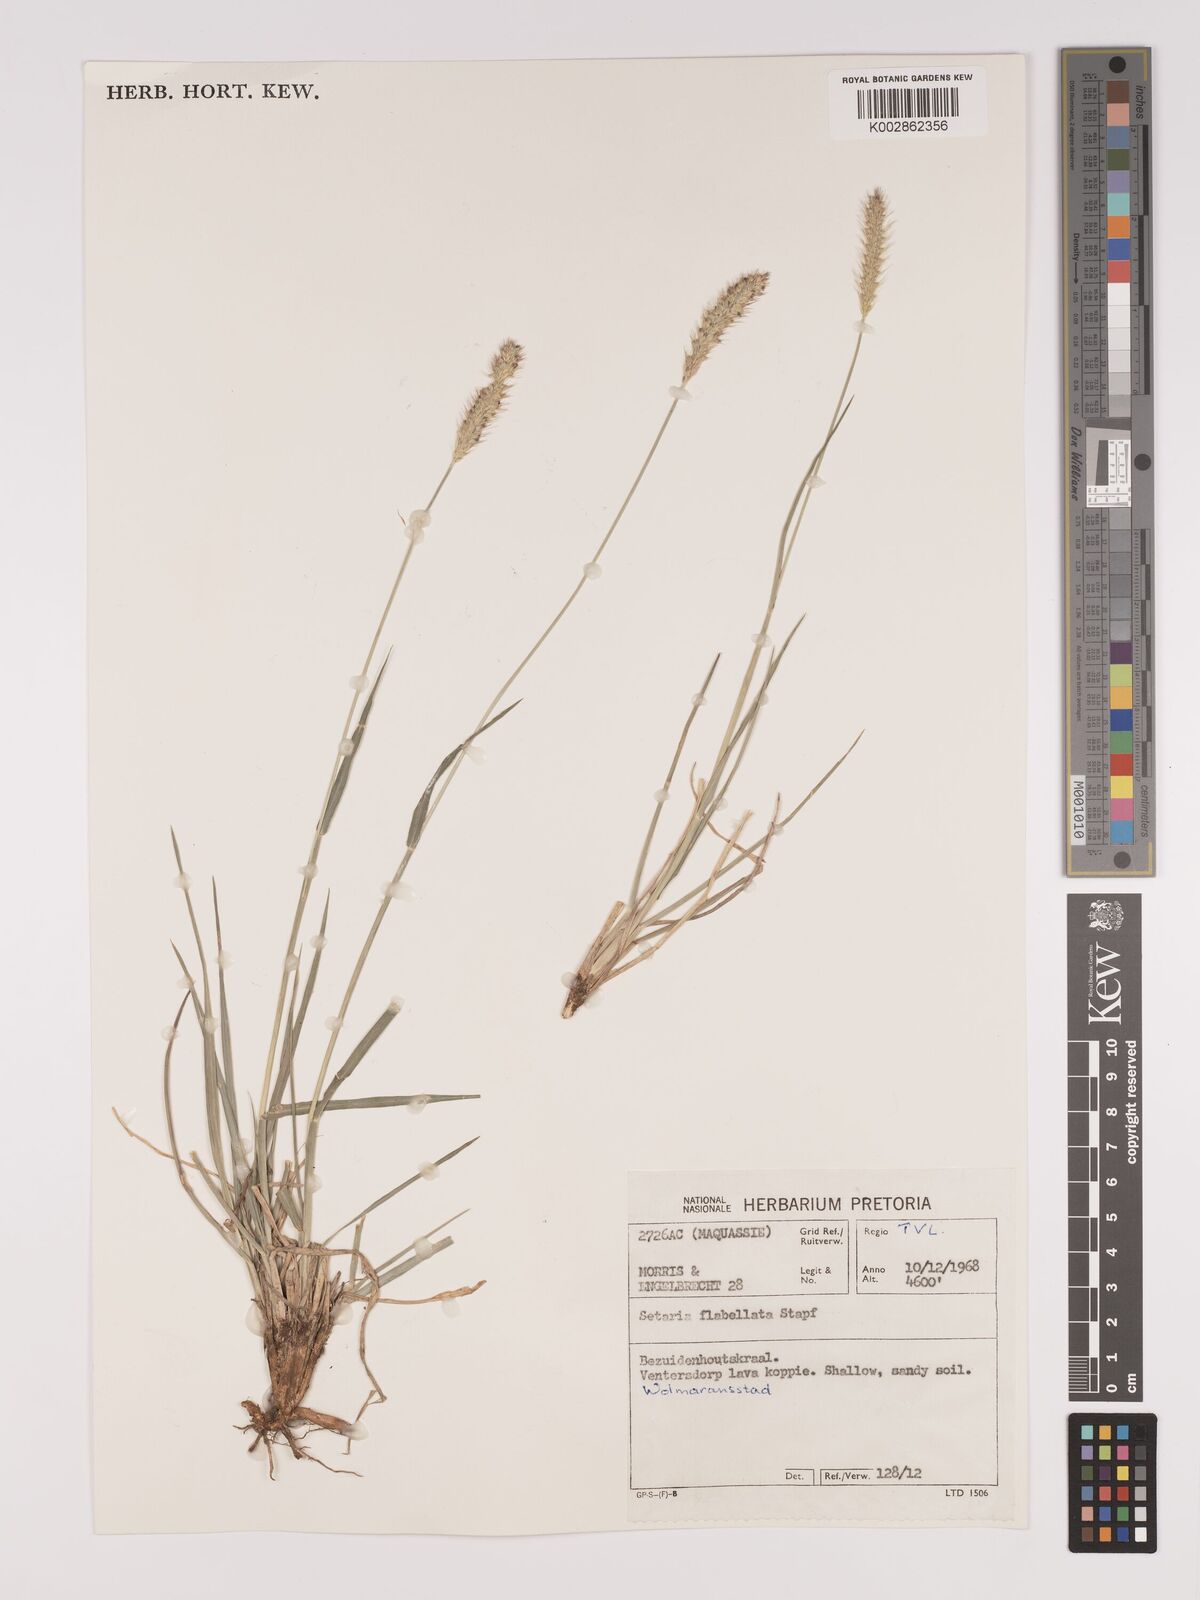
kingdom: Plantae
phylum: Tracheophyta
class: Liliopsida
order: Poales
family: Poaceae
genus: Setaria
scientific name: Setaria sphacelata
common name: African bristlegrass
